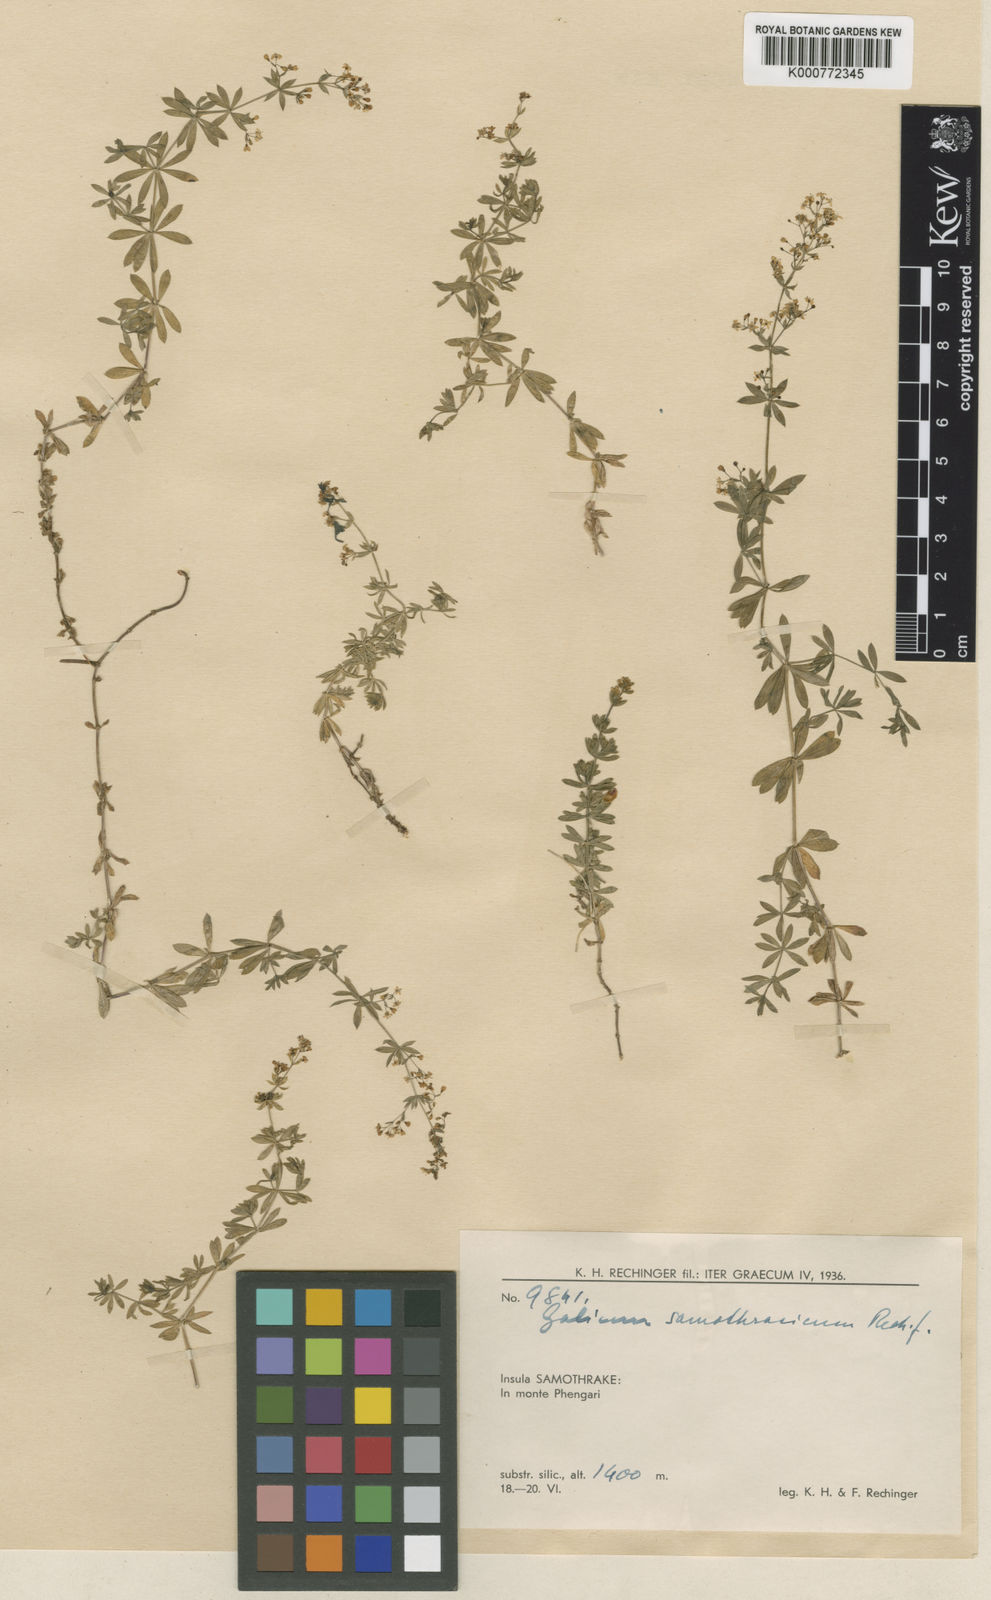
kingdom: Plantae
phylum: Tracheophyta
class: Magnoliopsida
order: Gentianales
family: Rubiaceae
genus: Galium
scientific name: Galium samothracicum
